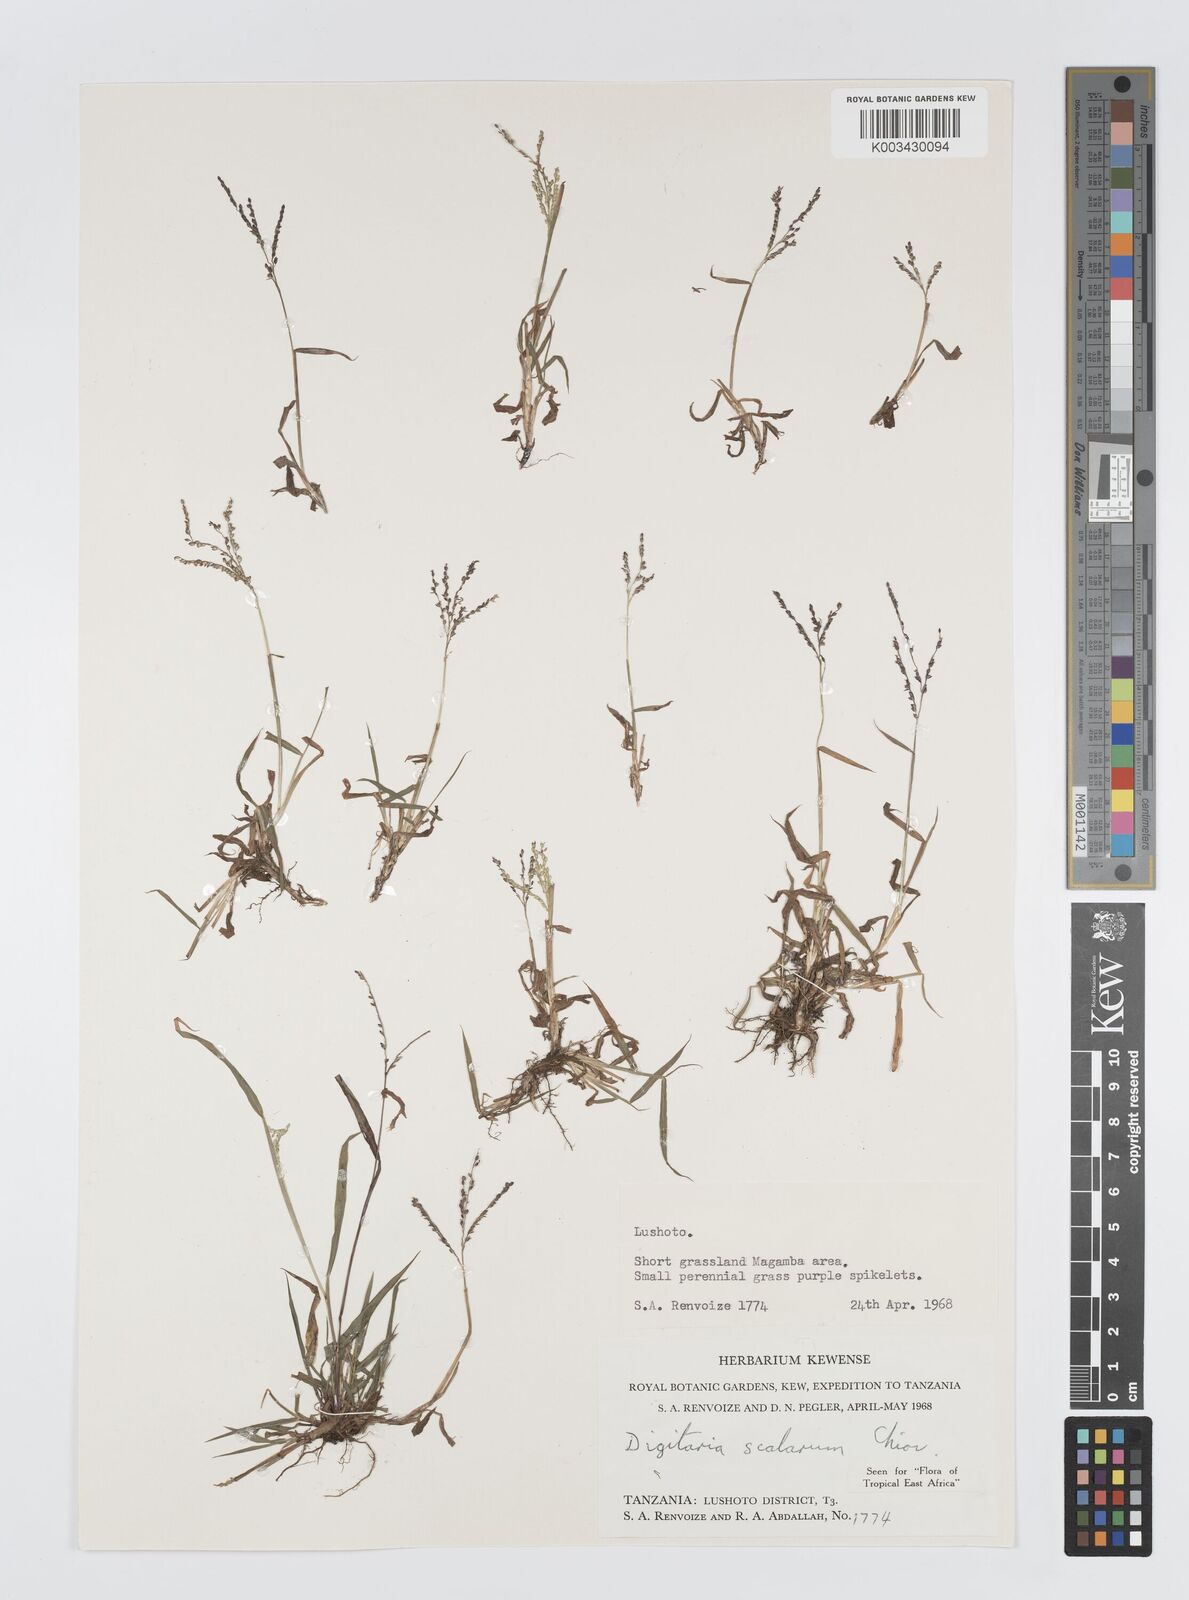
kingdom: Plantae
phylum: Tracheophyta
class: Liliopsida
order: Poales
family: Poaceae
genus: Digitaria
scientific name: Digitaria abyssinica
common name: African couchgrass
